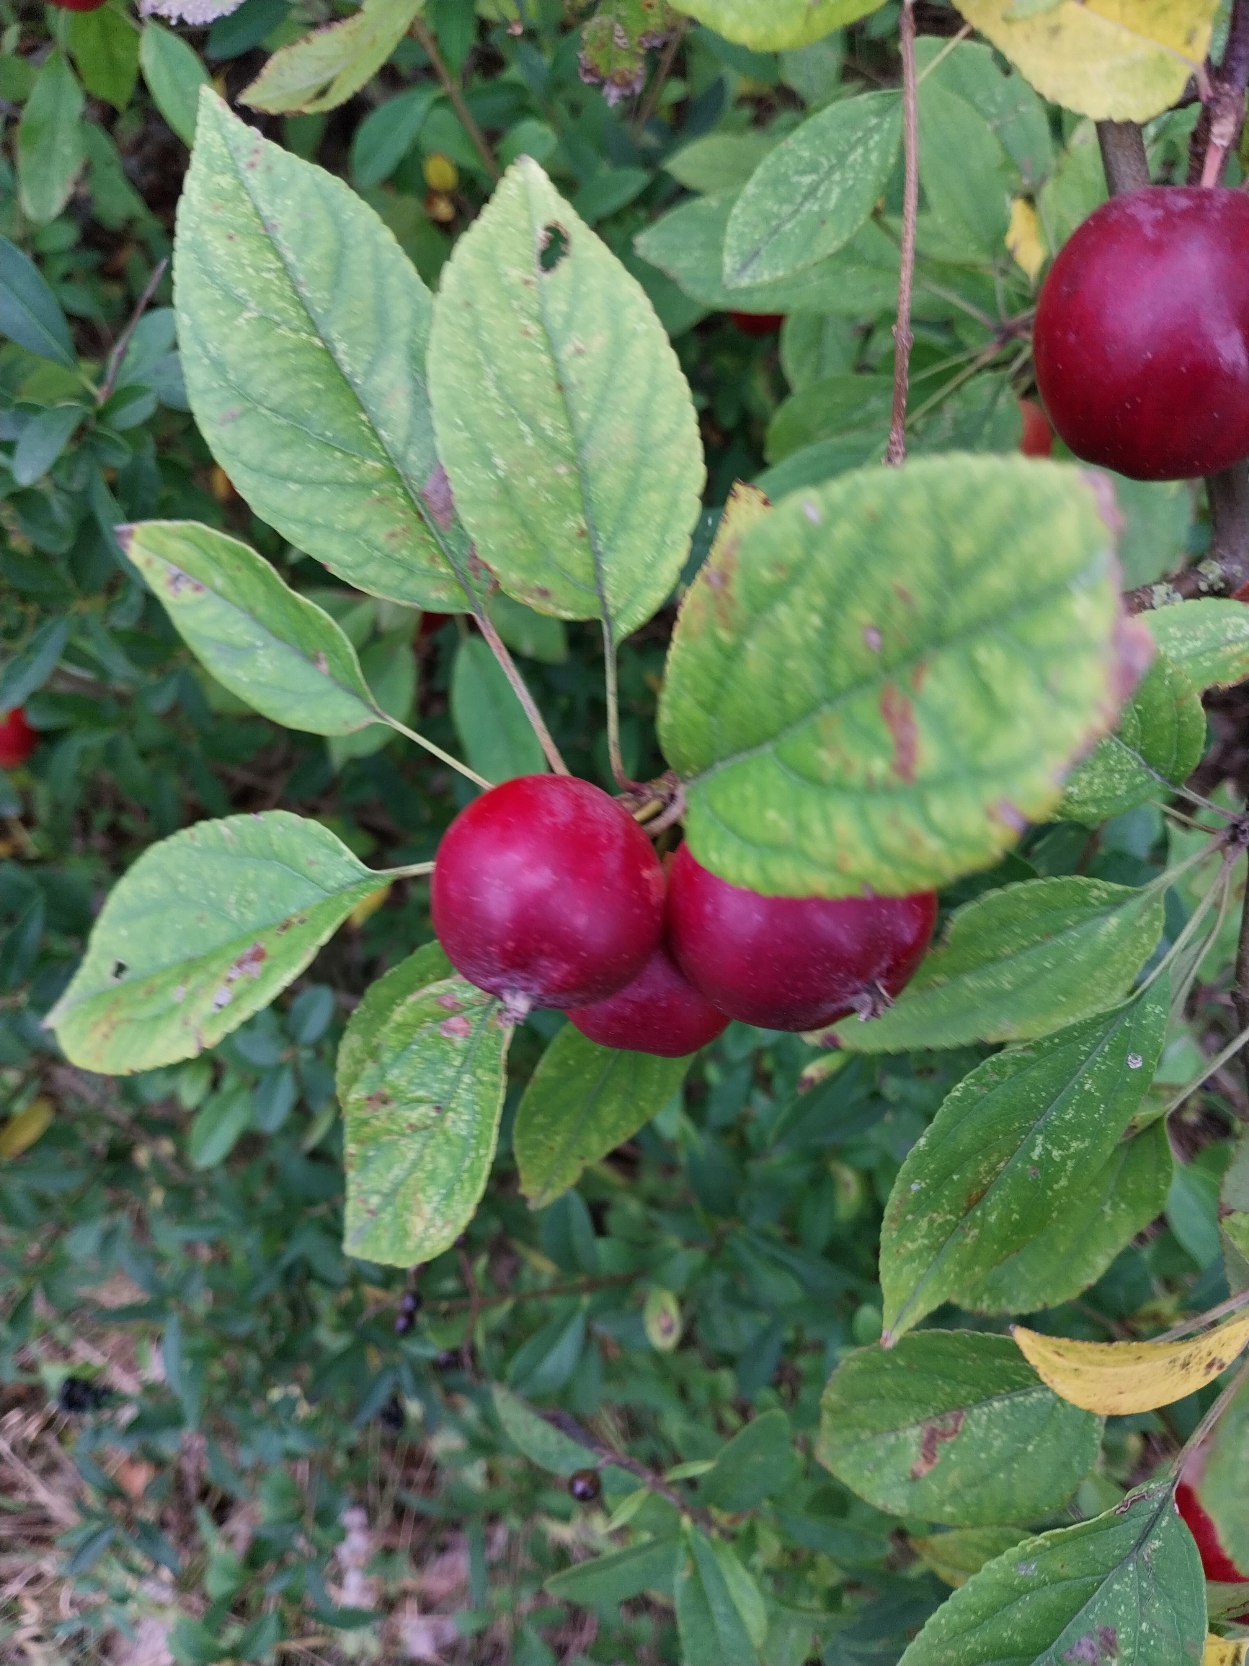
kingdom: Plantae
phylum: Tracheophyta
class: Magnoliopsida
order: Rosales
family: Rosaceae
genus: Malus
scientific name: Malus domestica
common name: Sød-æble
